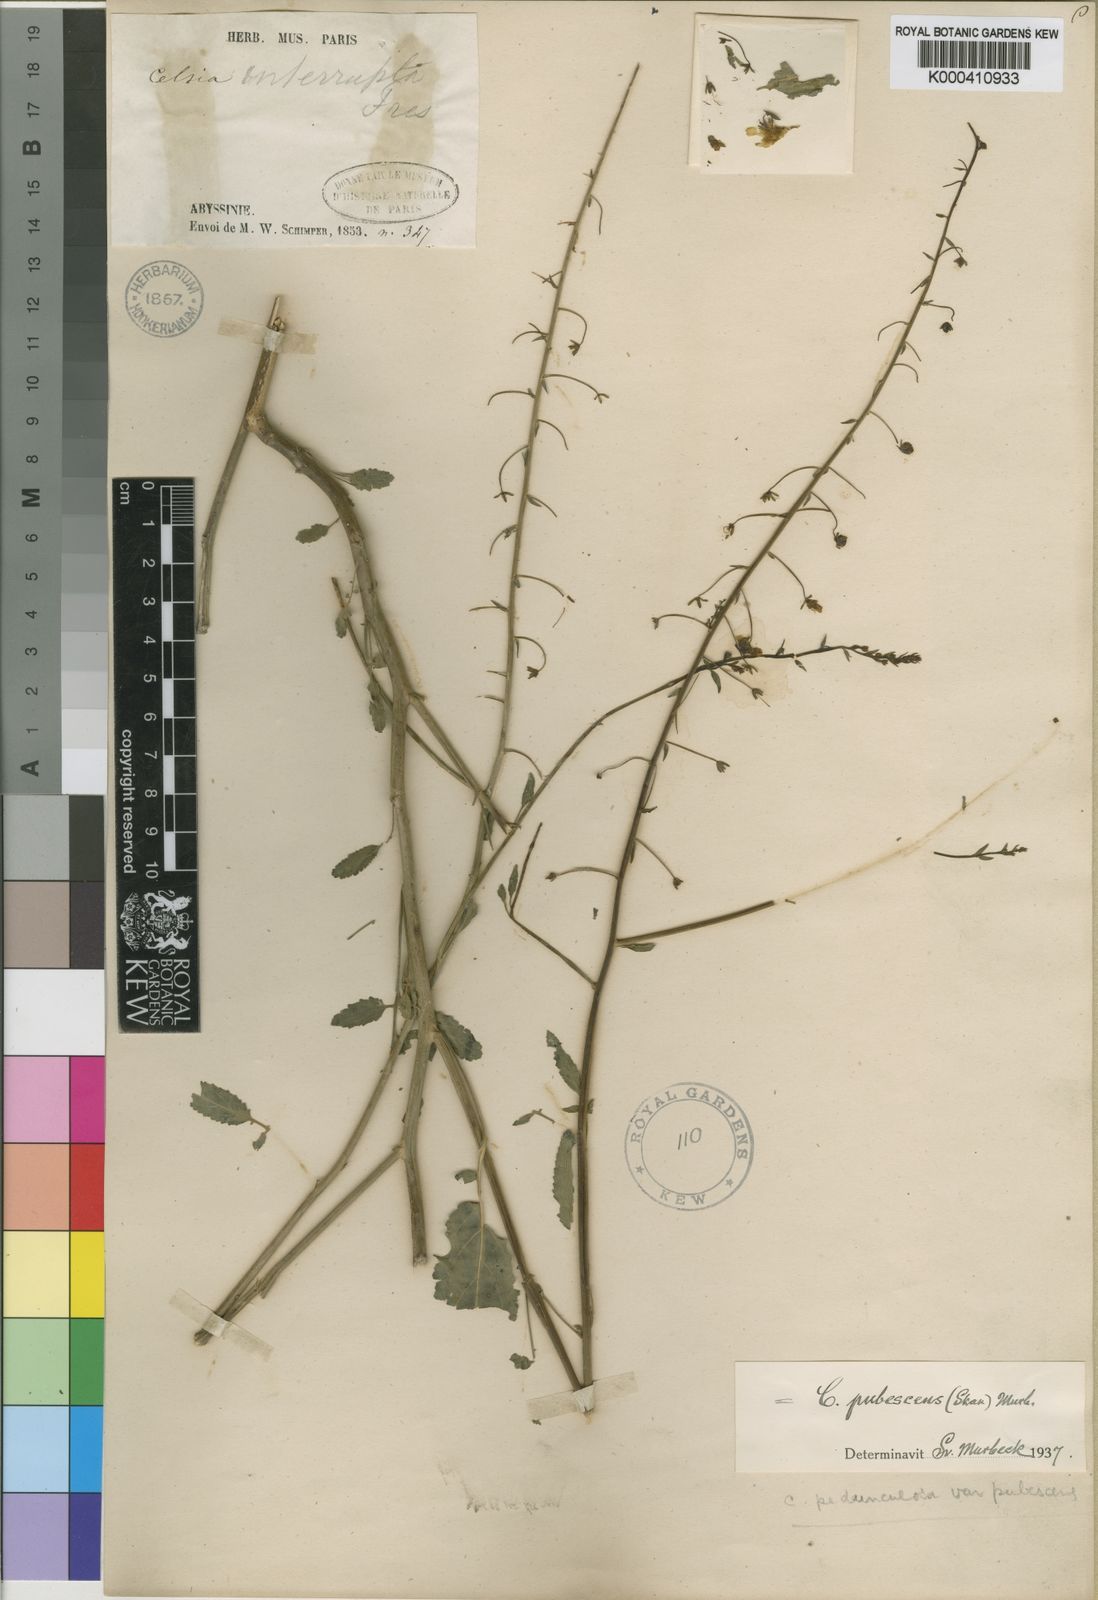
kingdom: Plantae
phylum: Tracheophyta
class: Magnoliopsida
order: Lamiales
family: Scrophulariaceae
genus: Verbascum
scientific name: Verbascum pubescens
